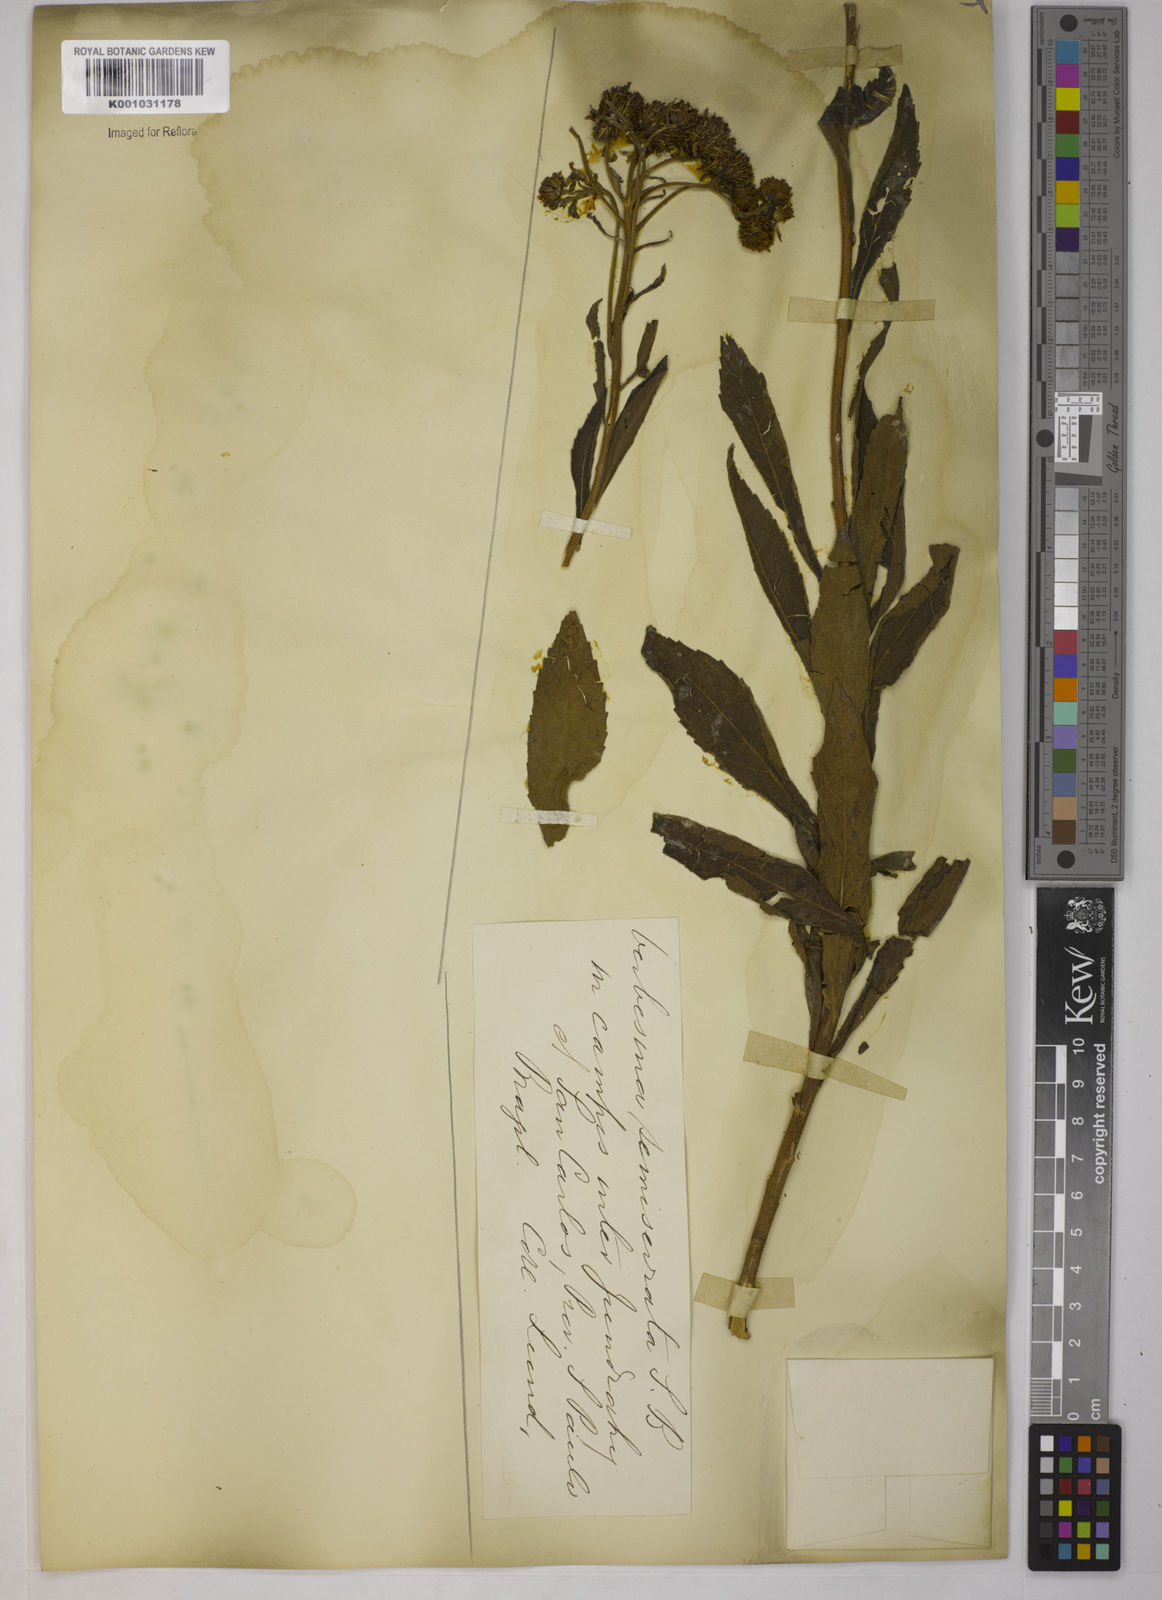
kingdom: Plantae
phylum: Tracheophyta
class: Magnoliopsida
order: Asterales
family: Asteraceae
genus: Verbesina
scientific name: Verbesina sordescens
